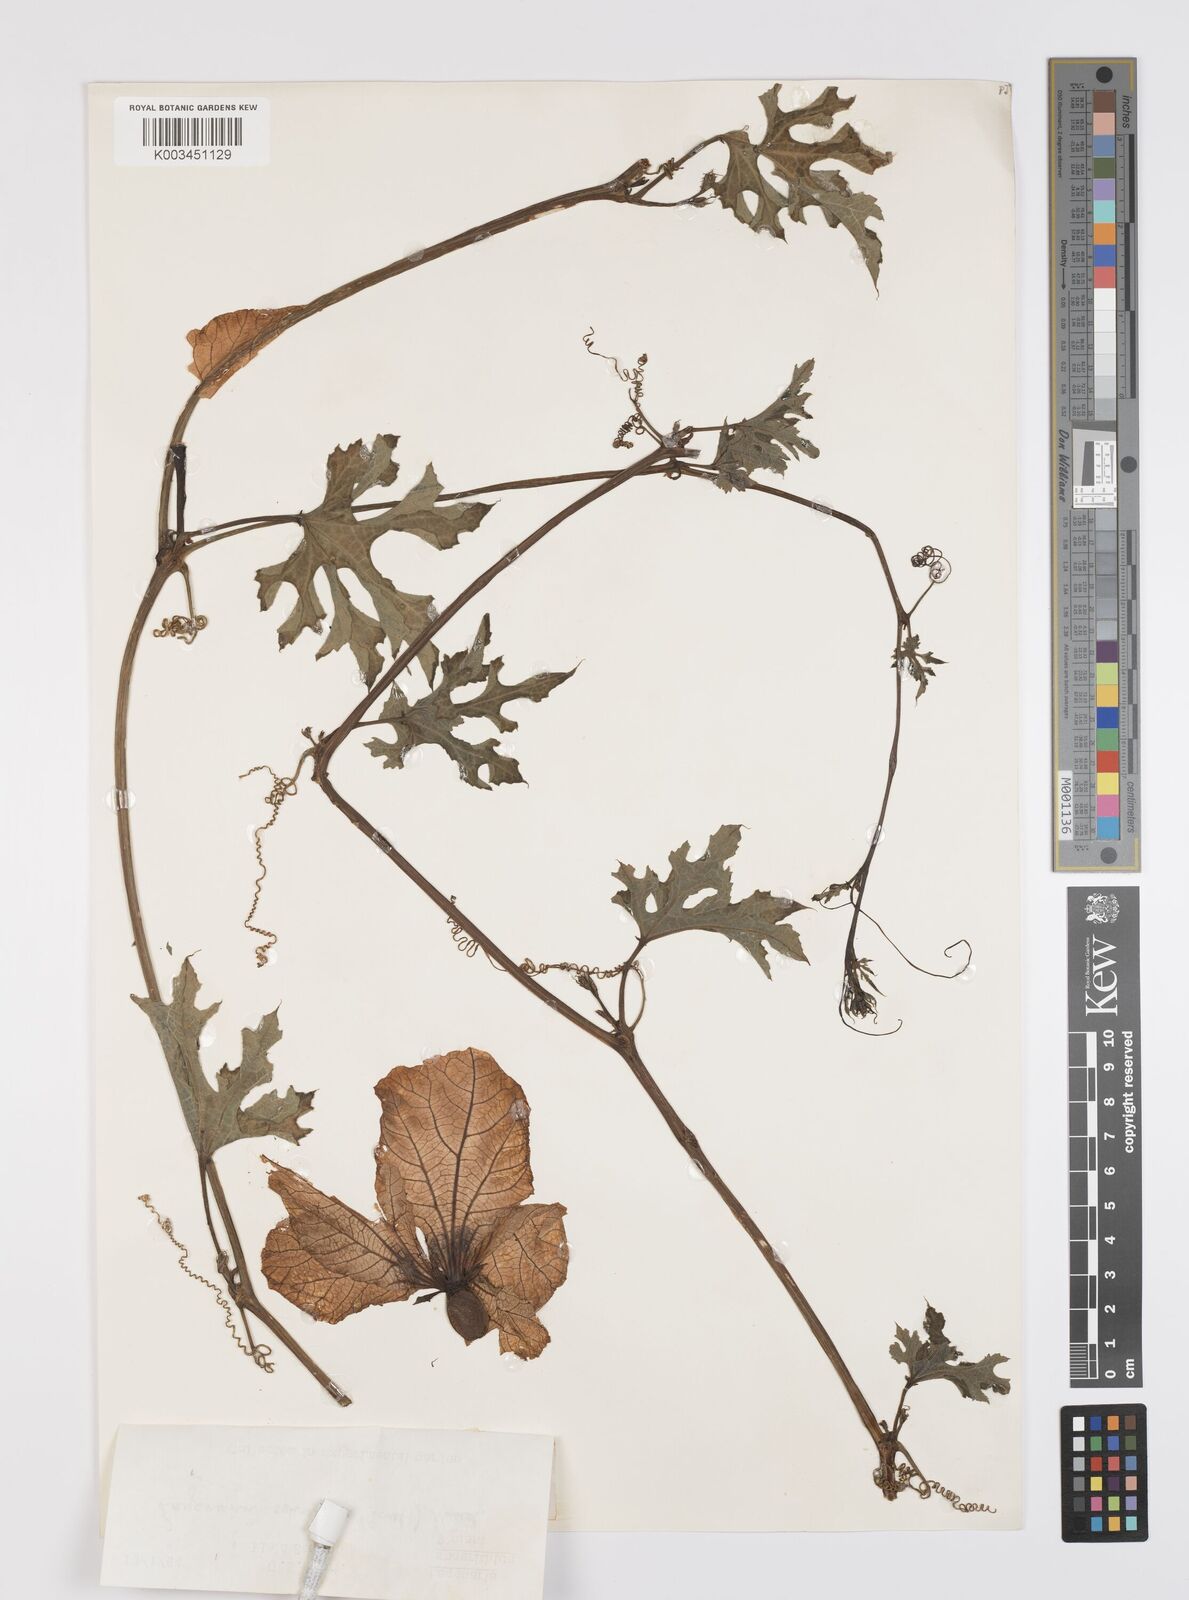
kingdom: Plantae
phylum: Tracheophyta
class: Magnoliopsida
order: Cucurbitales
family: Cucurbitaceae
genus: Lagenaria
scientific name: Lagenaria sphaerica
